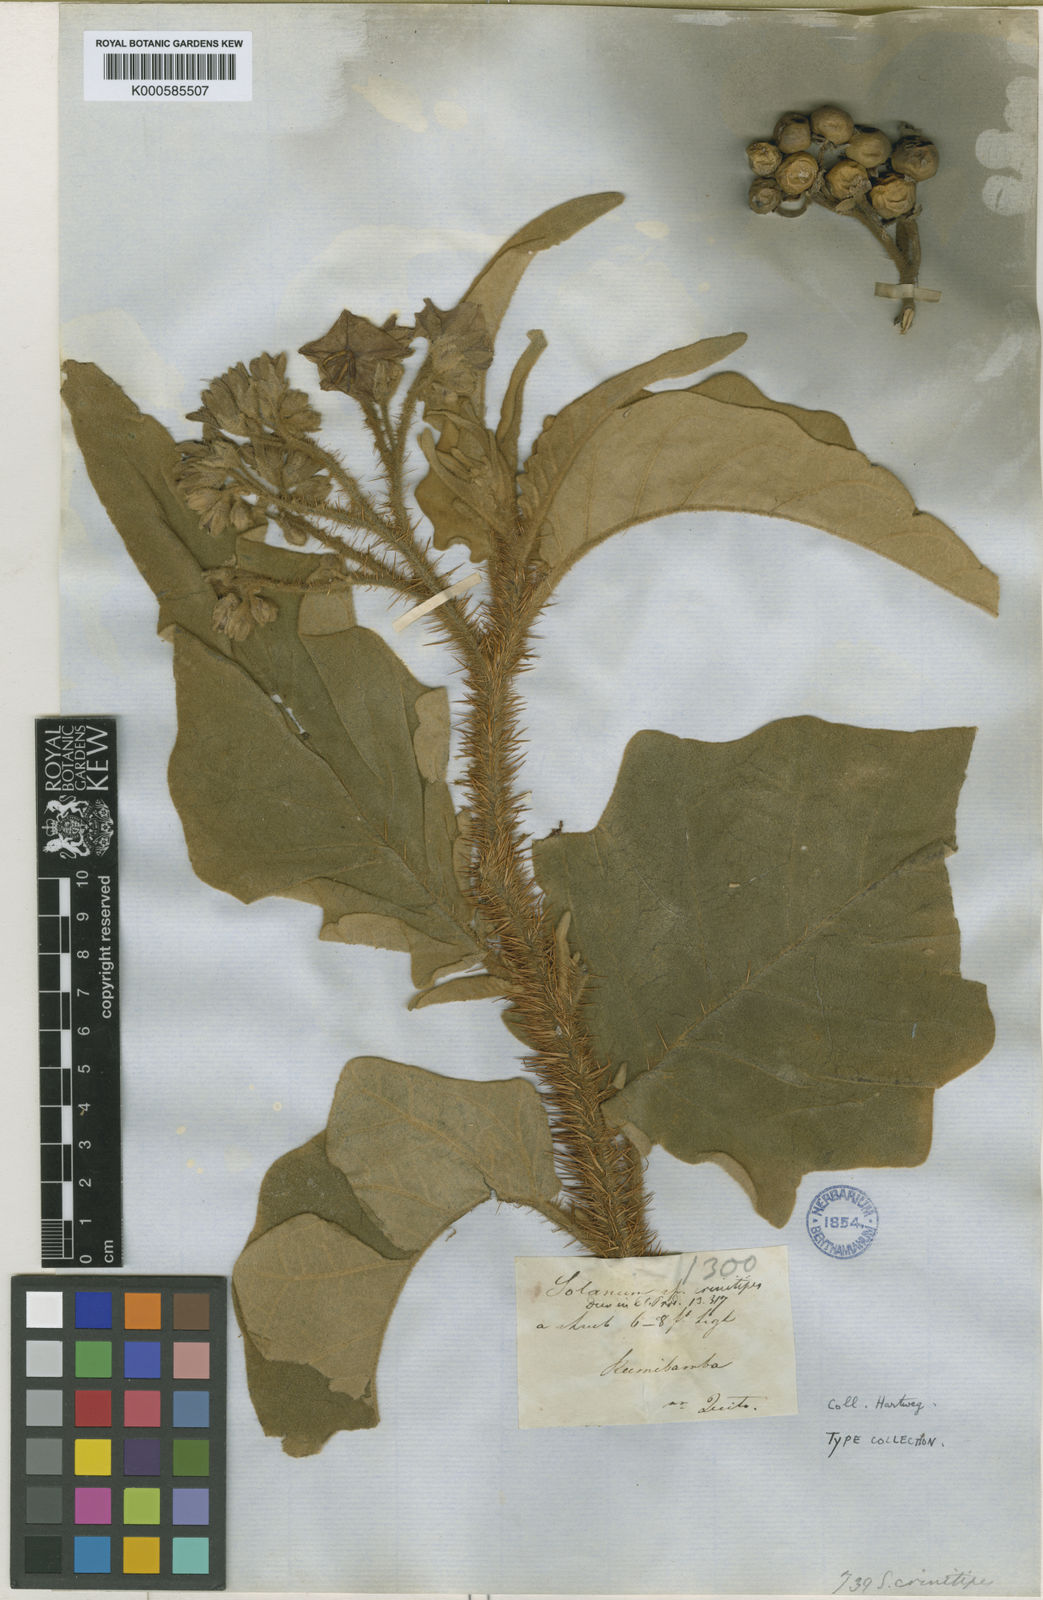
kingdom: Plantae
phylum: Tracheophyta
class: Magnoliopsida
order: Solanales
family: Solanaceae
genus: Solanum
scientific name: Solanum crinitipes
